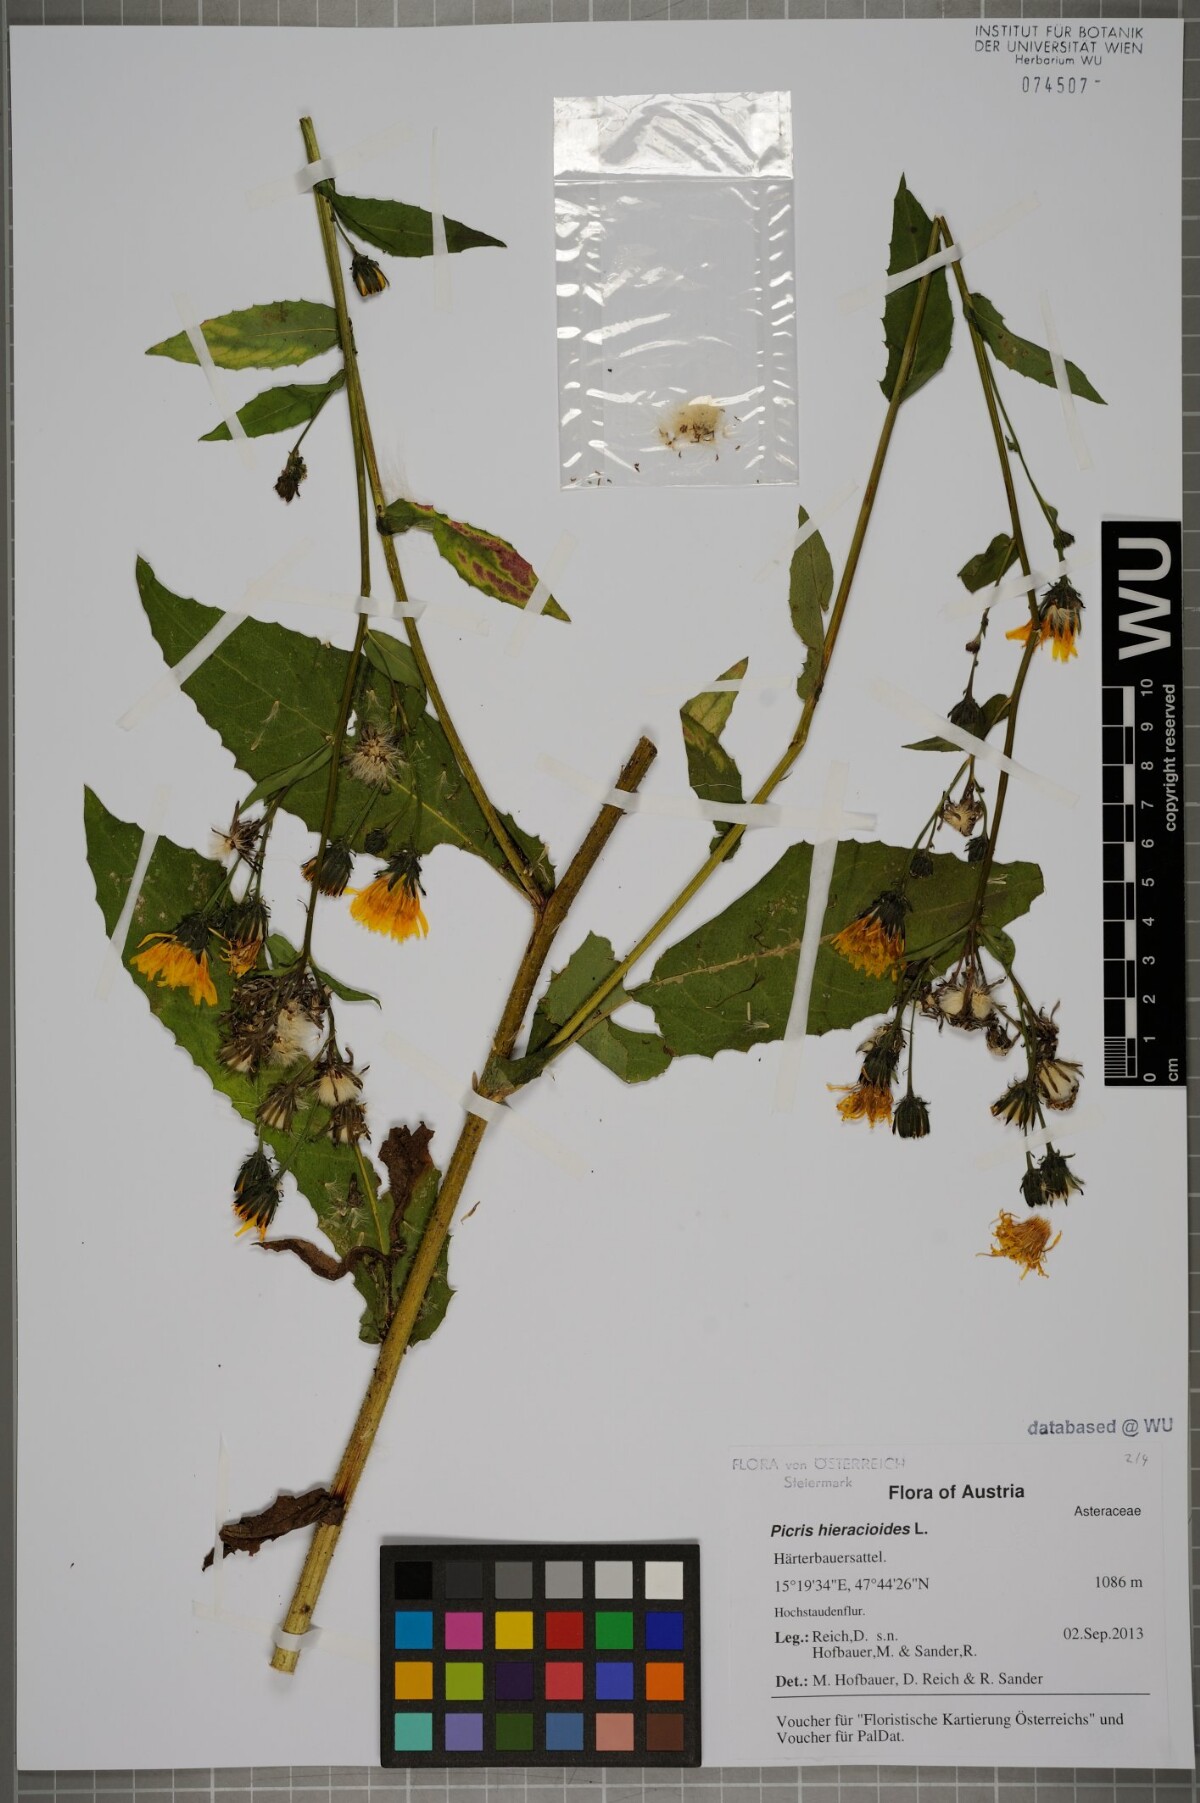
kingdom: Plantae
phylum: Tracheophyta
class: Magnoliopsida
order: Asterales
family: Asteraceae
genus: Picris
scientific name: Picris hieracioides
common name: Hawkweed oxtongue
